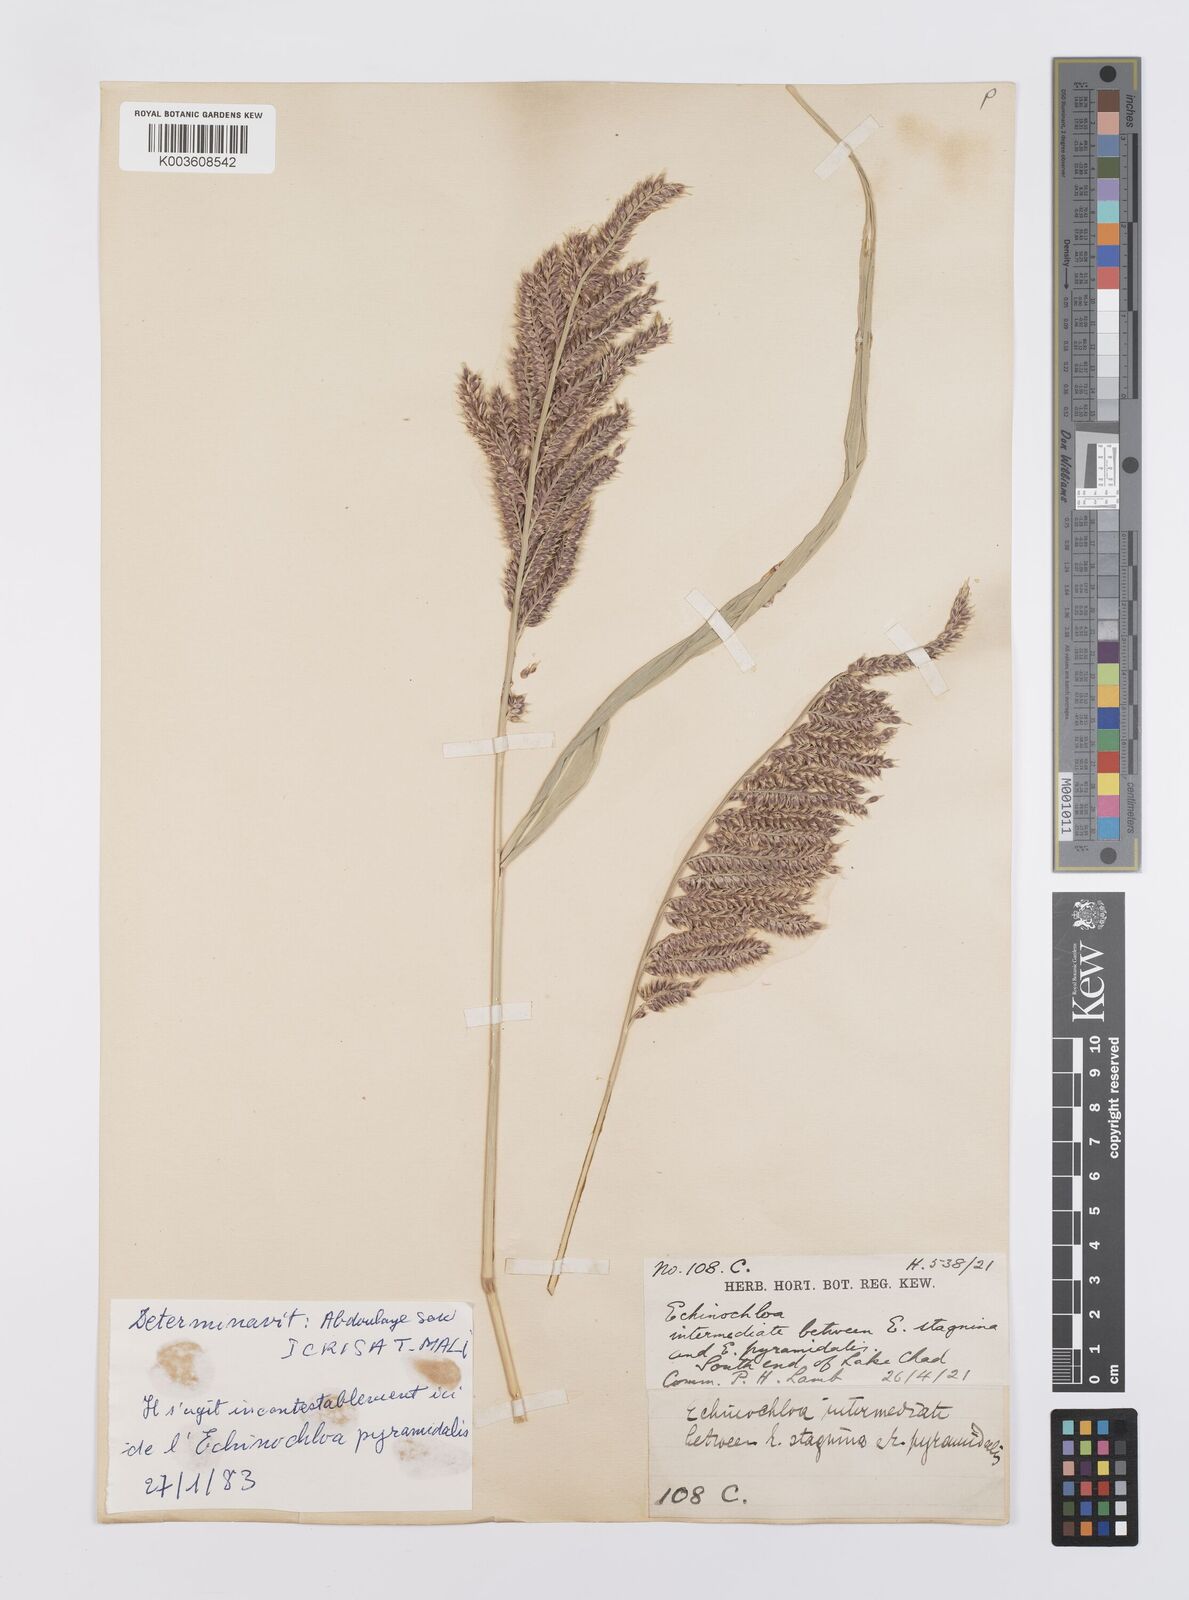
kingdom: Plantae
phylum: Tracheophyta
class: Liliopsida
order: Poales
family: Poaceae
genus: Echinochloa
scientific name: Echinochloa stagnina
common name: Burgu grass
